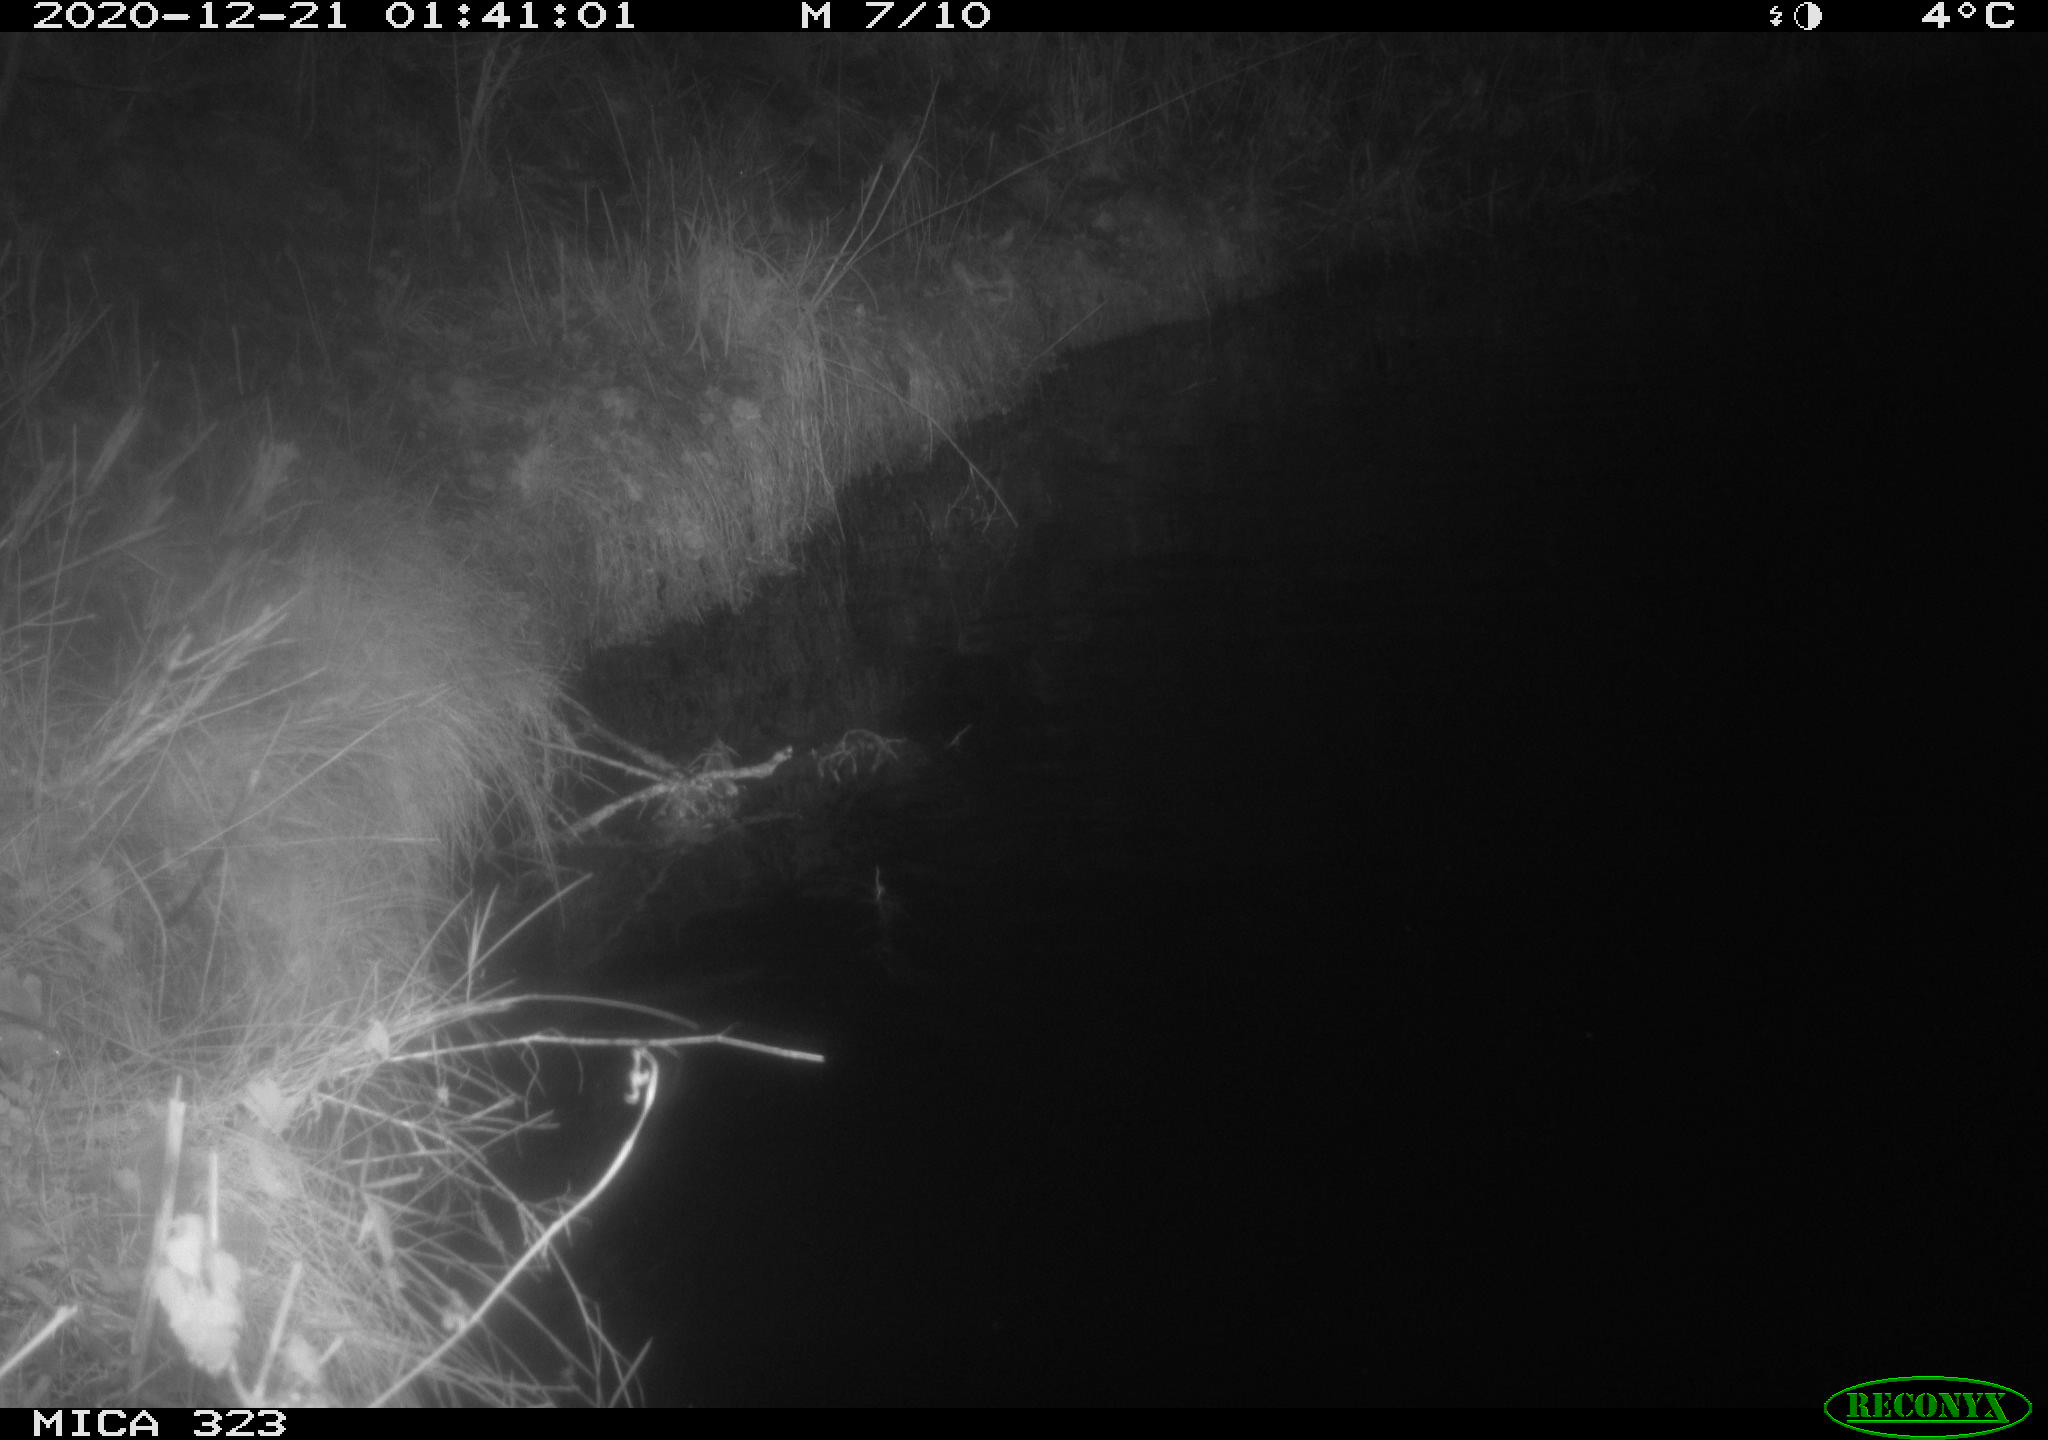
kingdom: Animalia
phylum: Chordata
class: Aves
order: Anseriformes
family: Anatidae
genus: Anas
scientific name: Anas platyrhynchos
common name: Mallard
